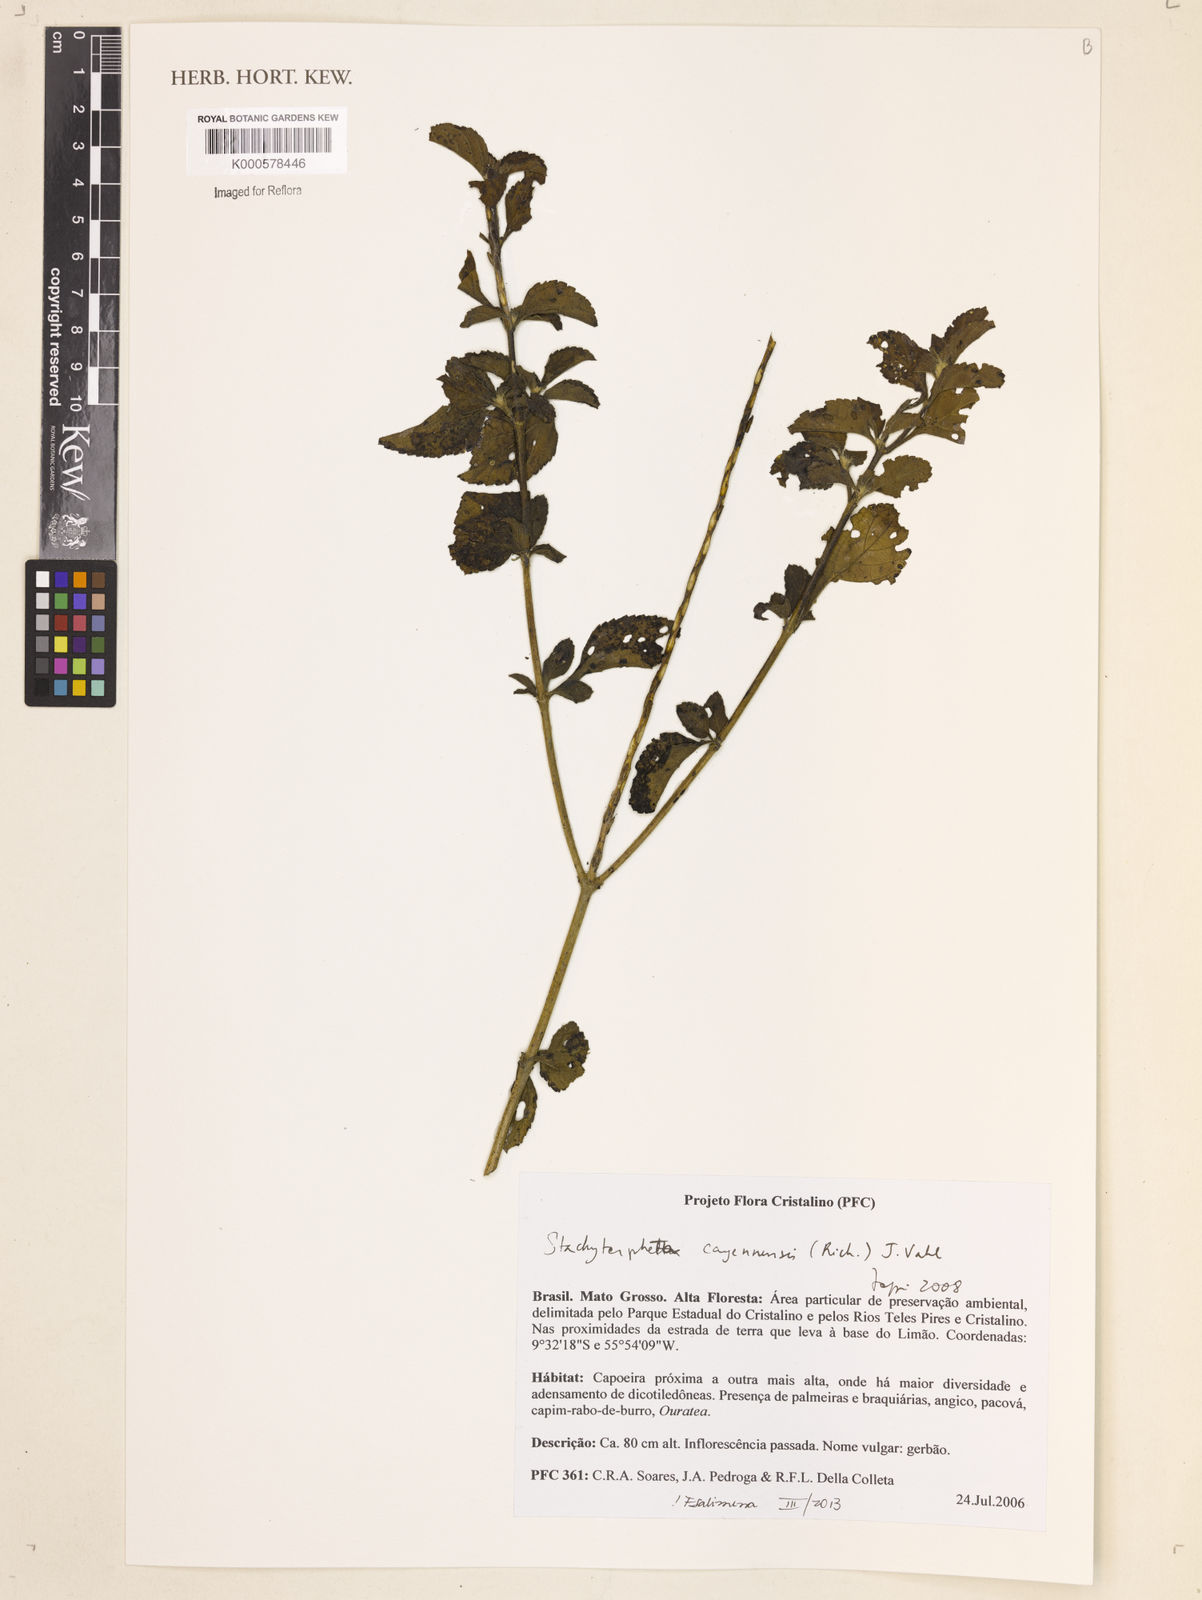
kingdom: Plantae
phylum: Tracheophyta
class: Magnoliopsida
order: Lamiales
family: Verbenaceae
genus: Stachytarpheta
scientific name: Stachytarpheta cayennensis
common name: Cayenne porterweed
